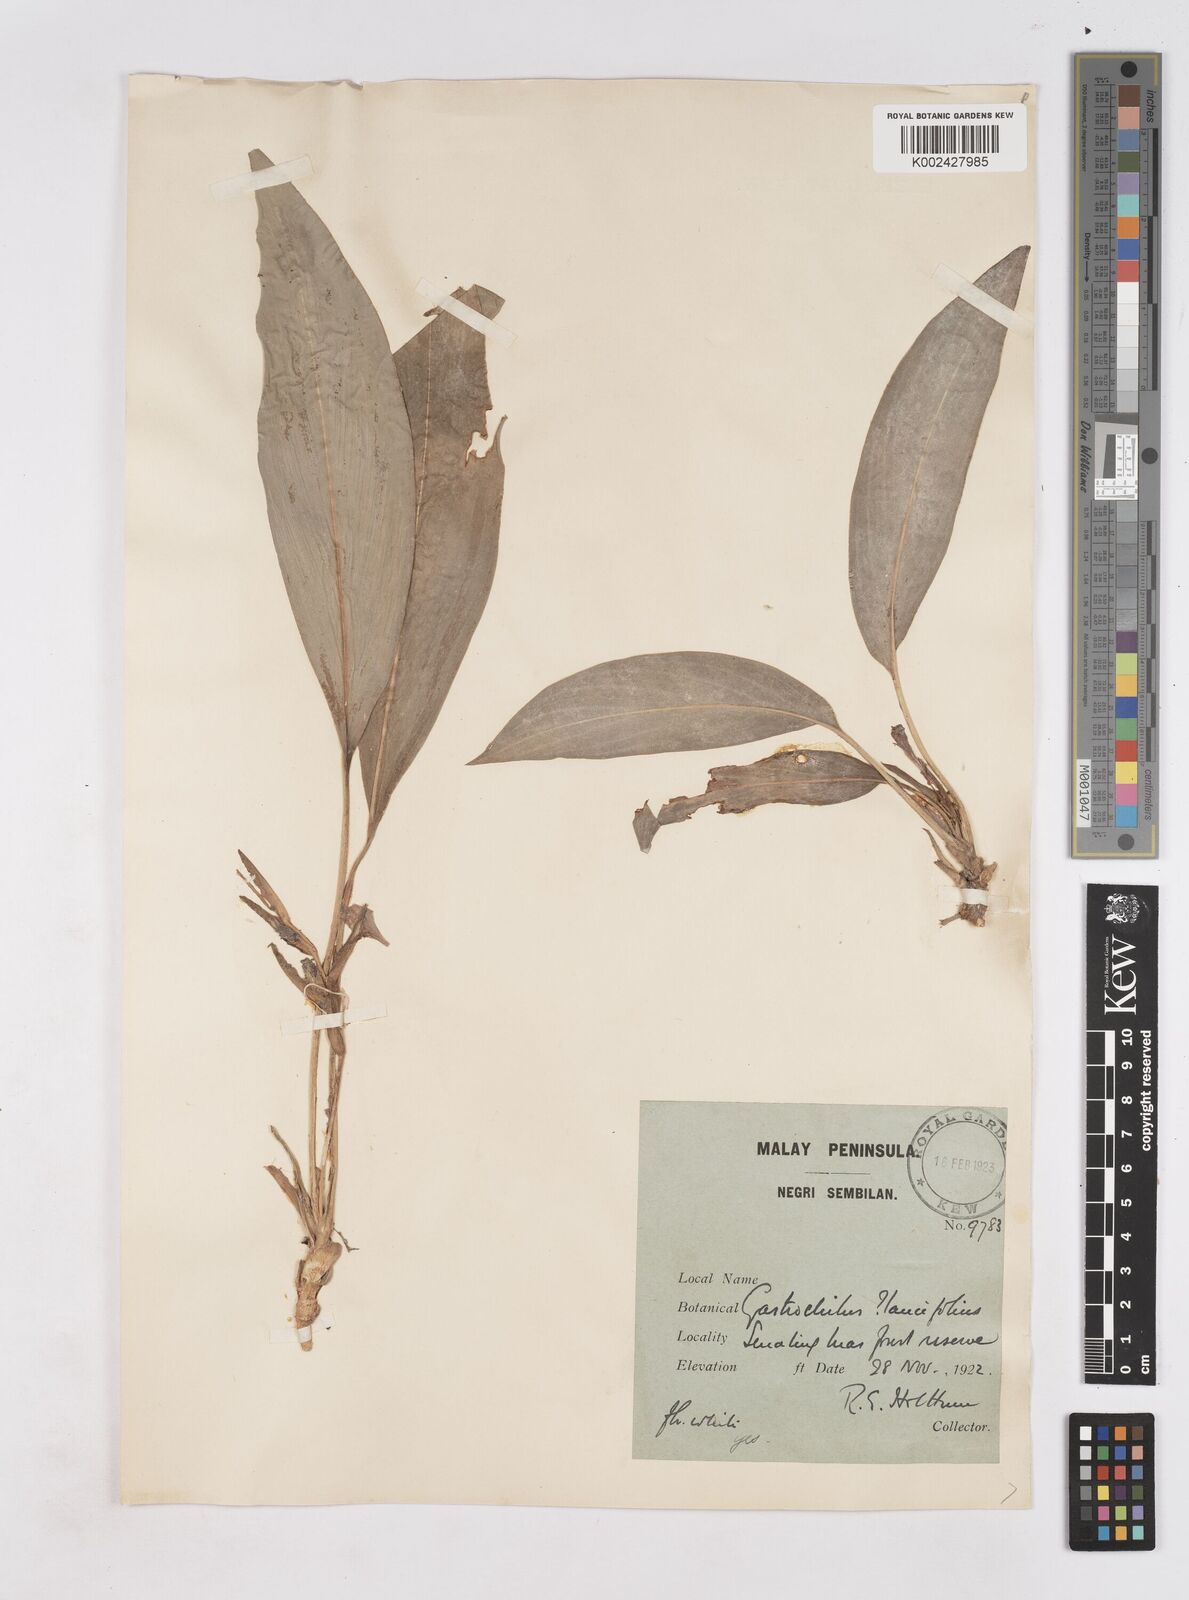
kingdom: Plantae
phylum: Tracheophyta
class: Liliopsida
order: Zingiberales
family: Zingiberaceae
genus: Scaphochlamys
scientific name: Scaphochlamys malaccana
